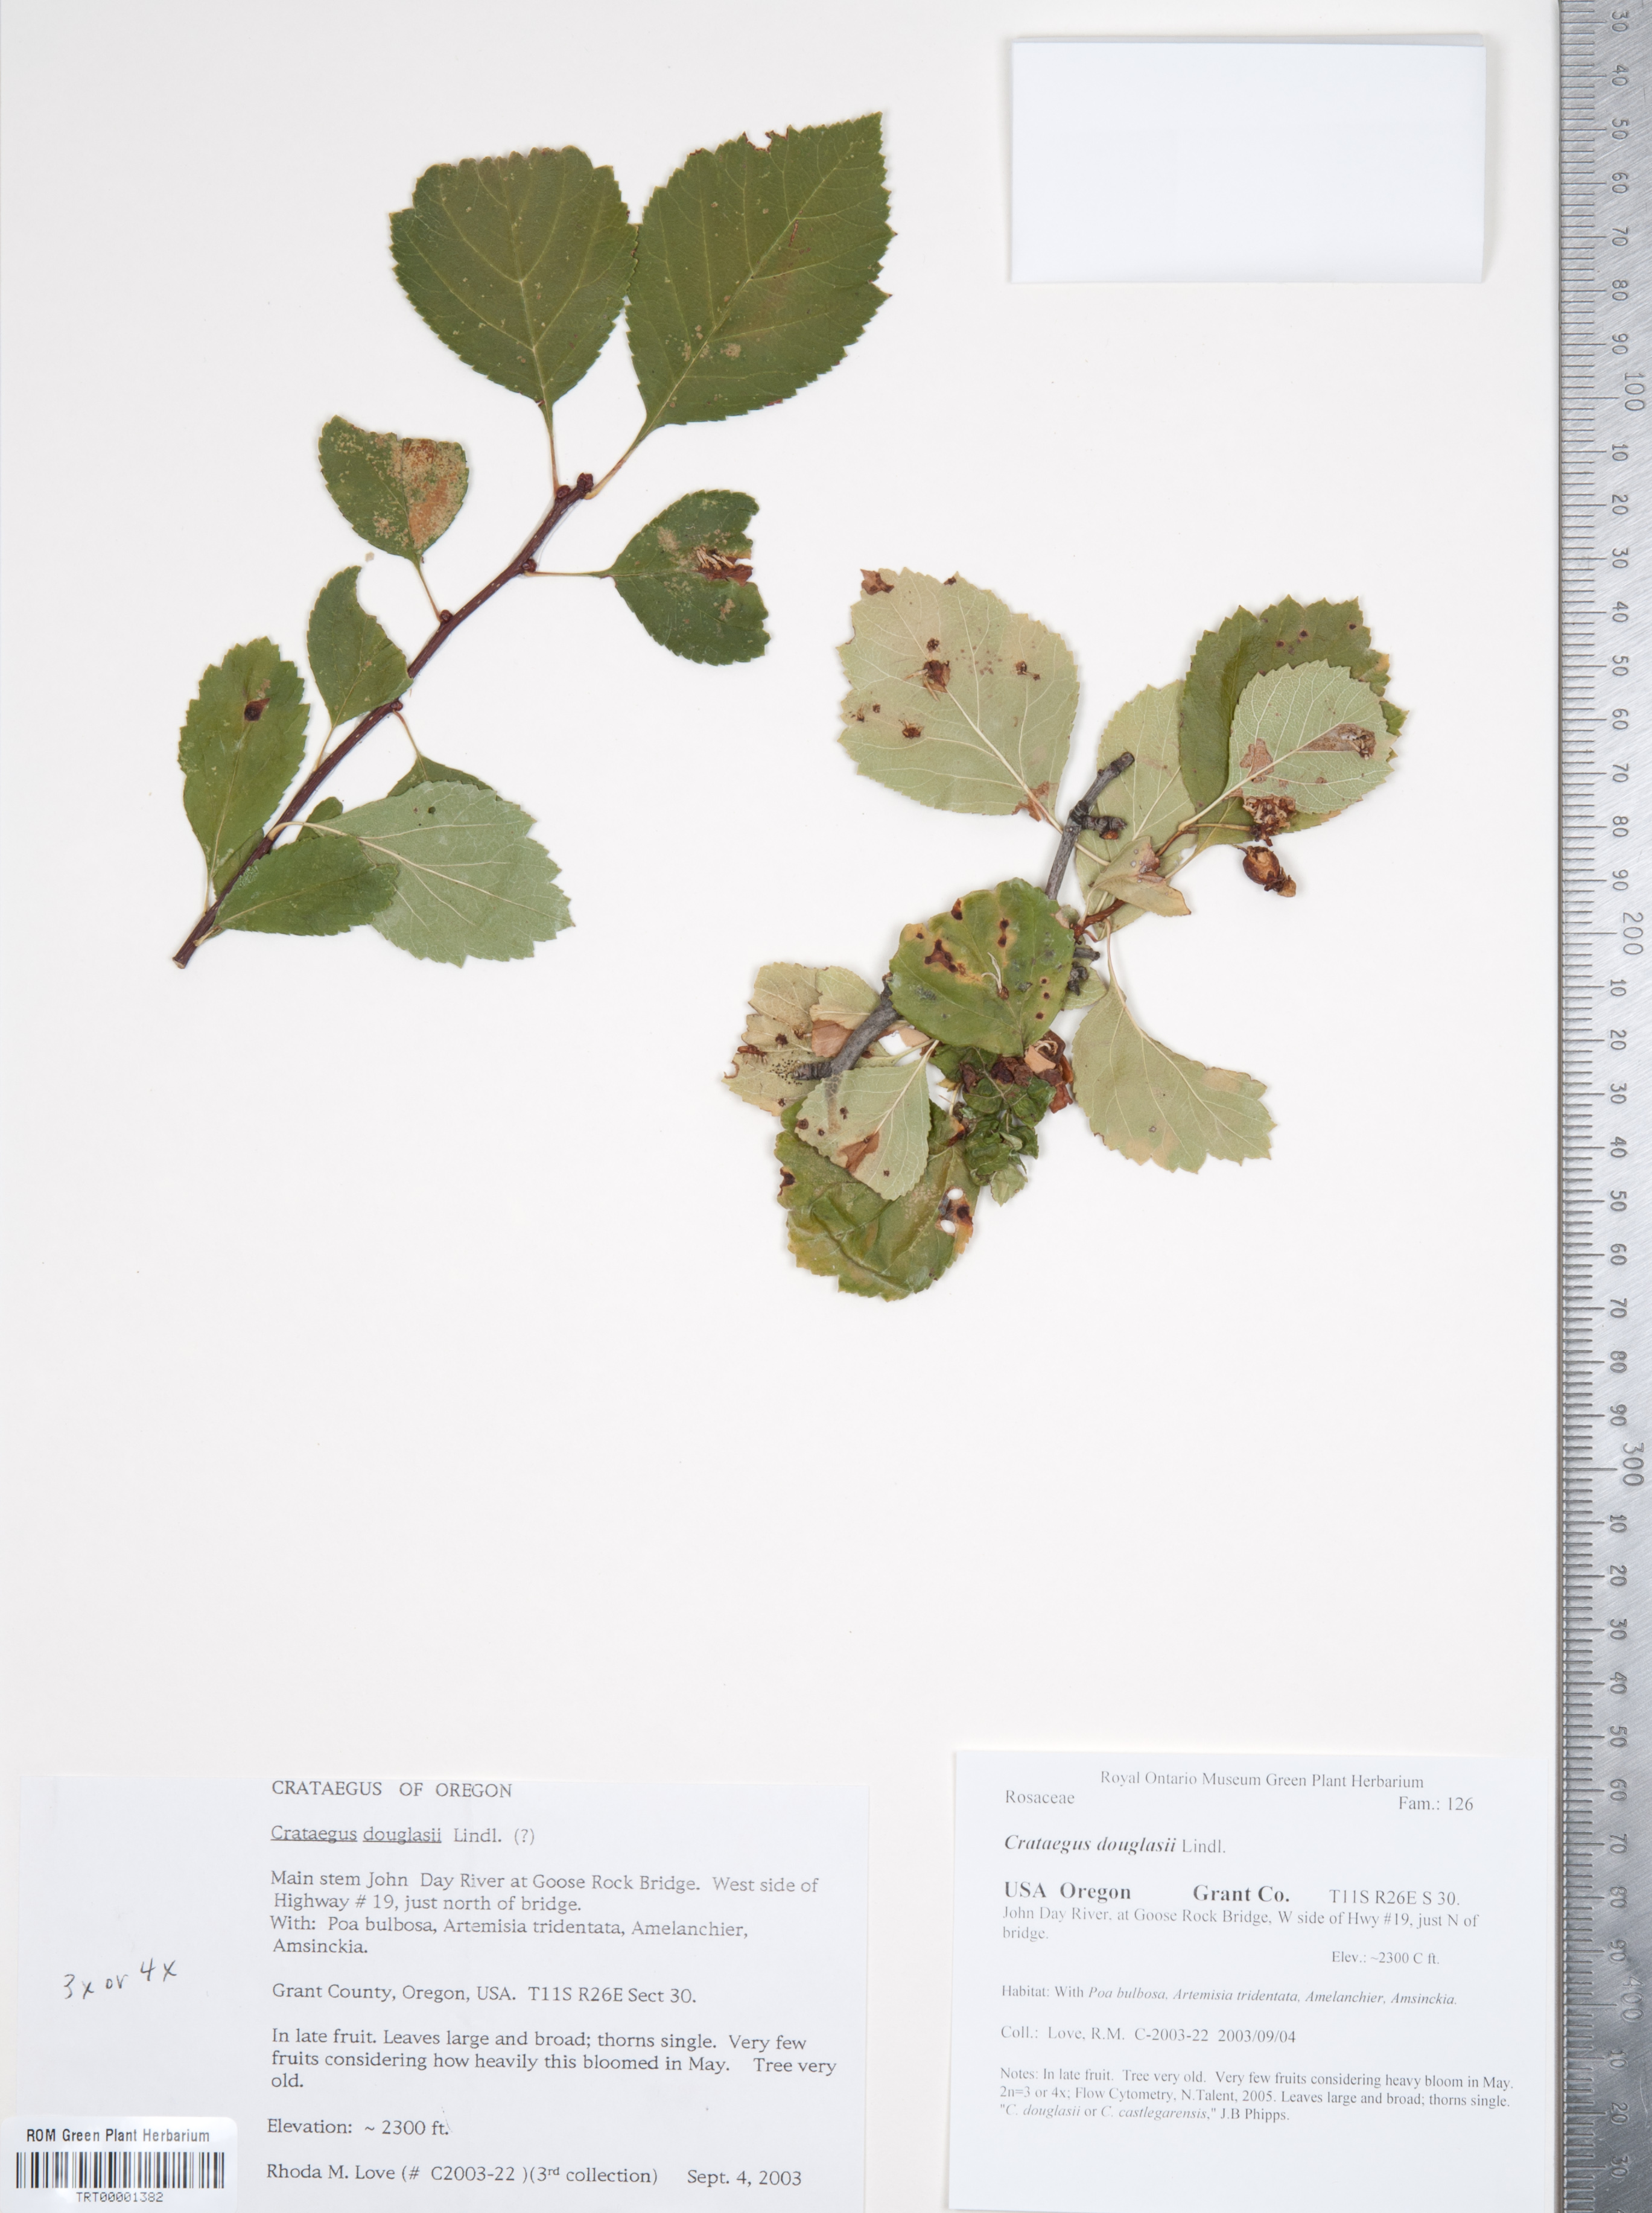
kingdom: Plantae
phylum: Tracheophyta
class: Magnoliopsida
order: Rosales
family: Rosaceae
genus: Crataegus
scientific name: Crataegus douglasii
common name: Black hawthorn
